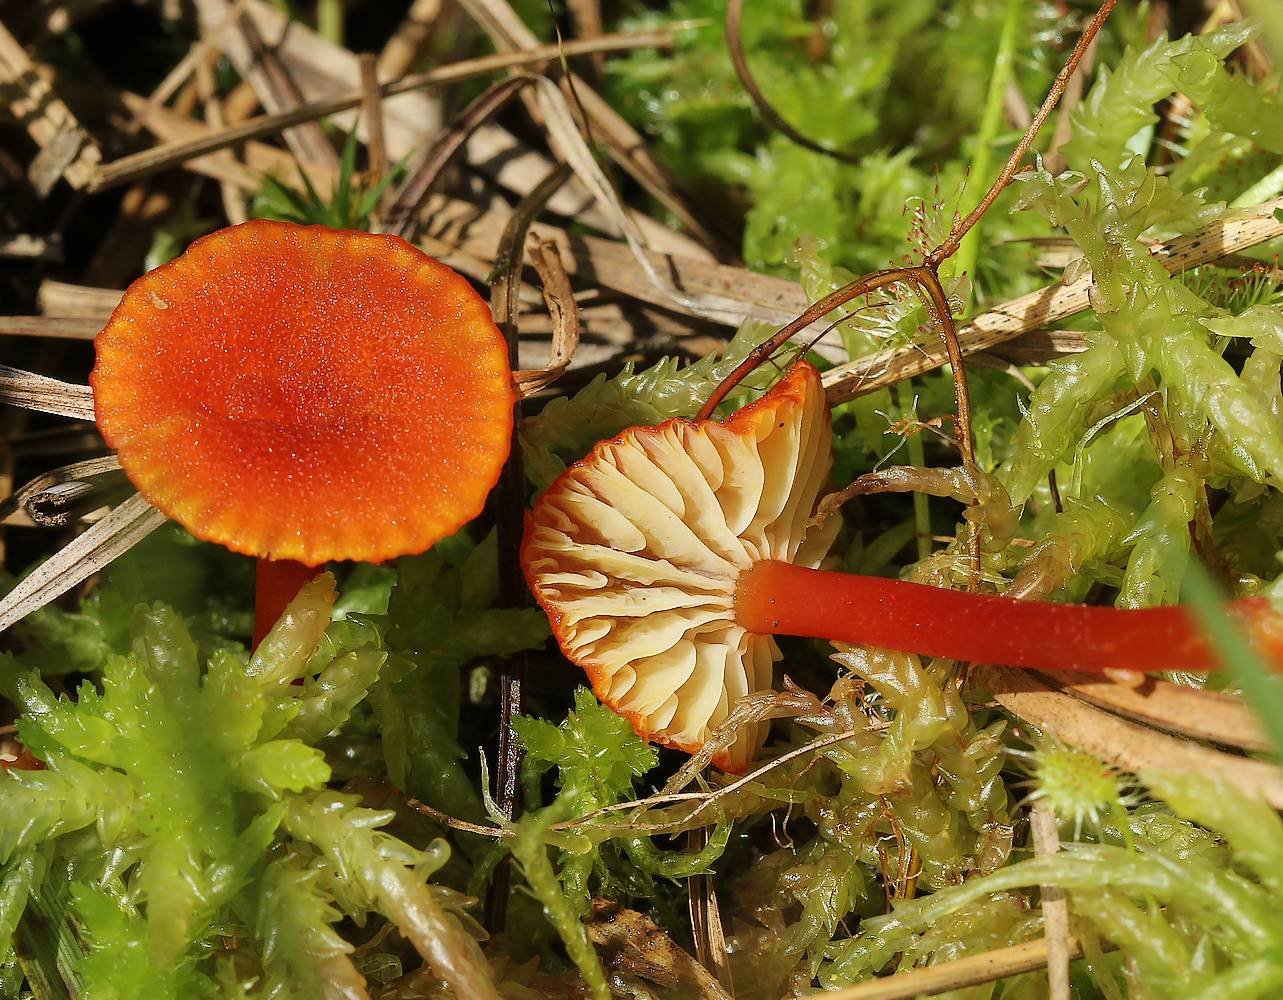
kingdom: Fungi
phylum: Basidiomycota
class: Agaricomycetes
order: Agaricales
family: Hygrophoraceae
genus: Hygrocybe
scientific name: Hygrocybe coccineocrenata
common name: tørvemos-vokshat
